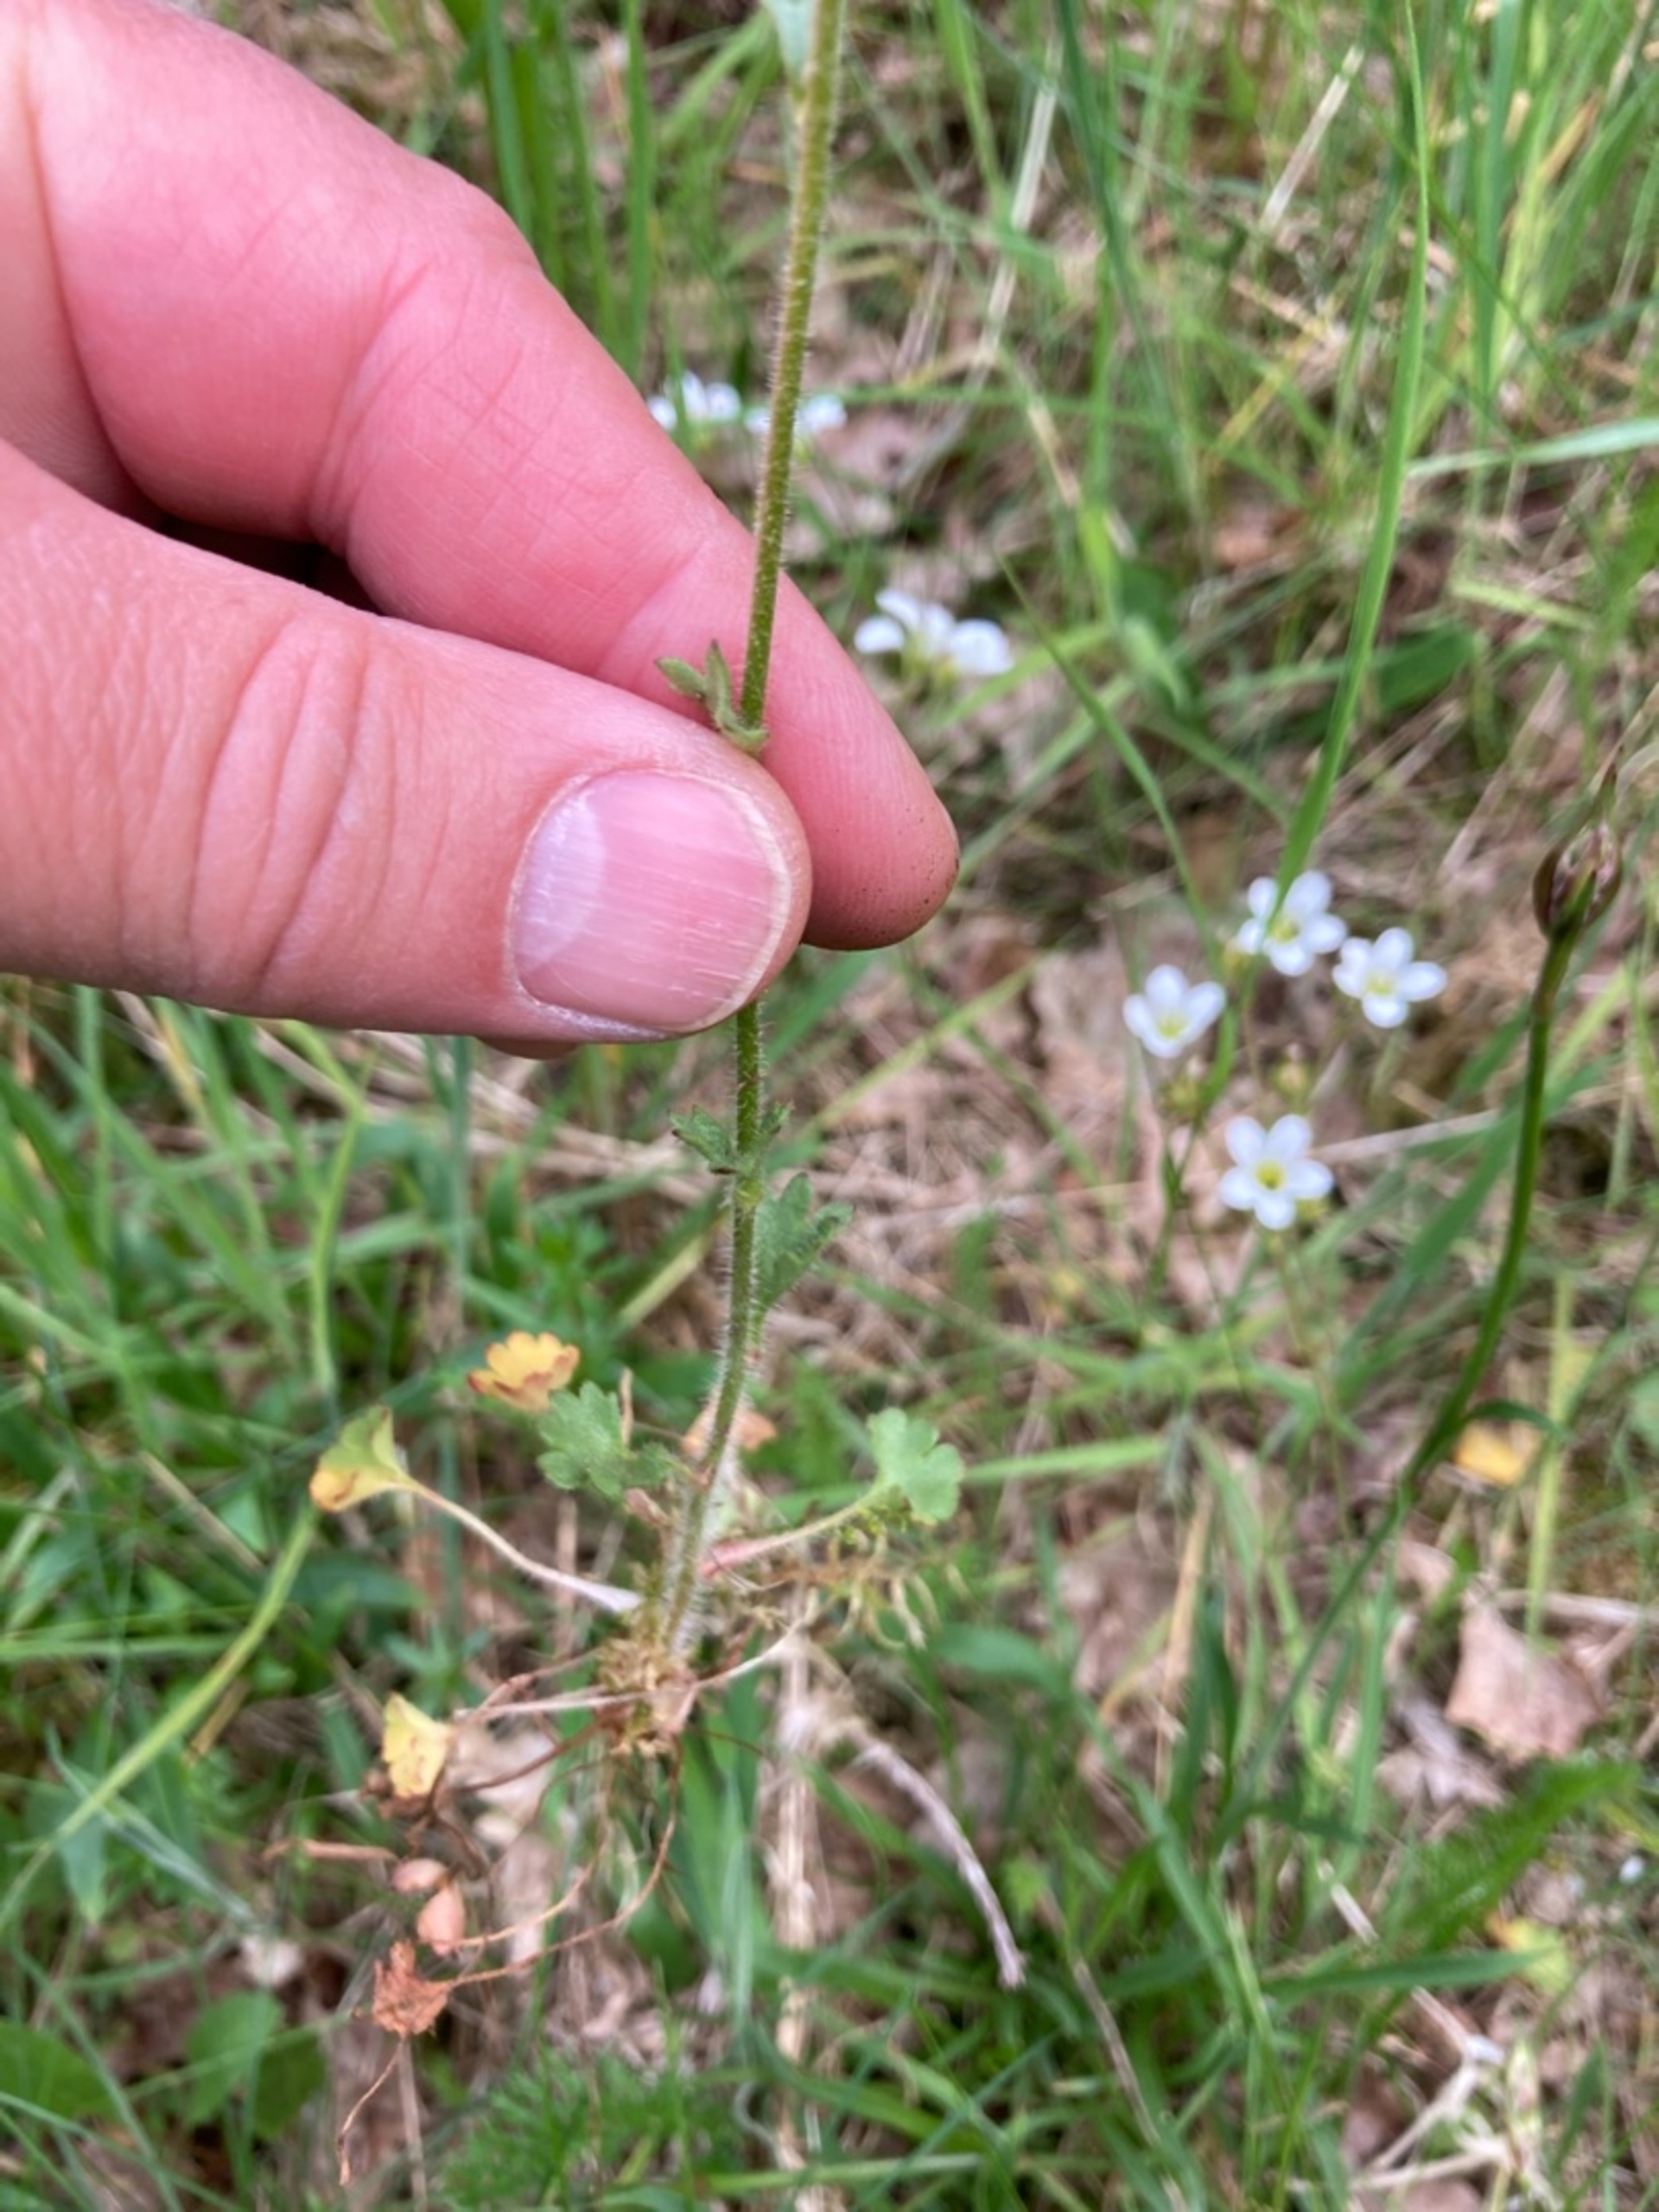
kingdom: Plantae
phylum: Tracheophyta
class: Magnoliopsida
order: Saxifragales
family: Saxifragaceae
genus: Saxifraga
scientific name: Saxifraga granulata
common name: Kornet stenbræk
